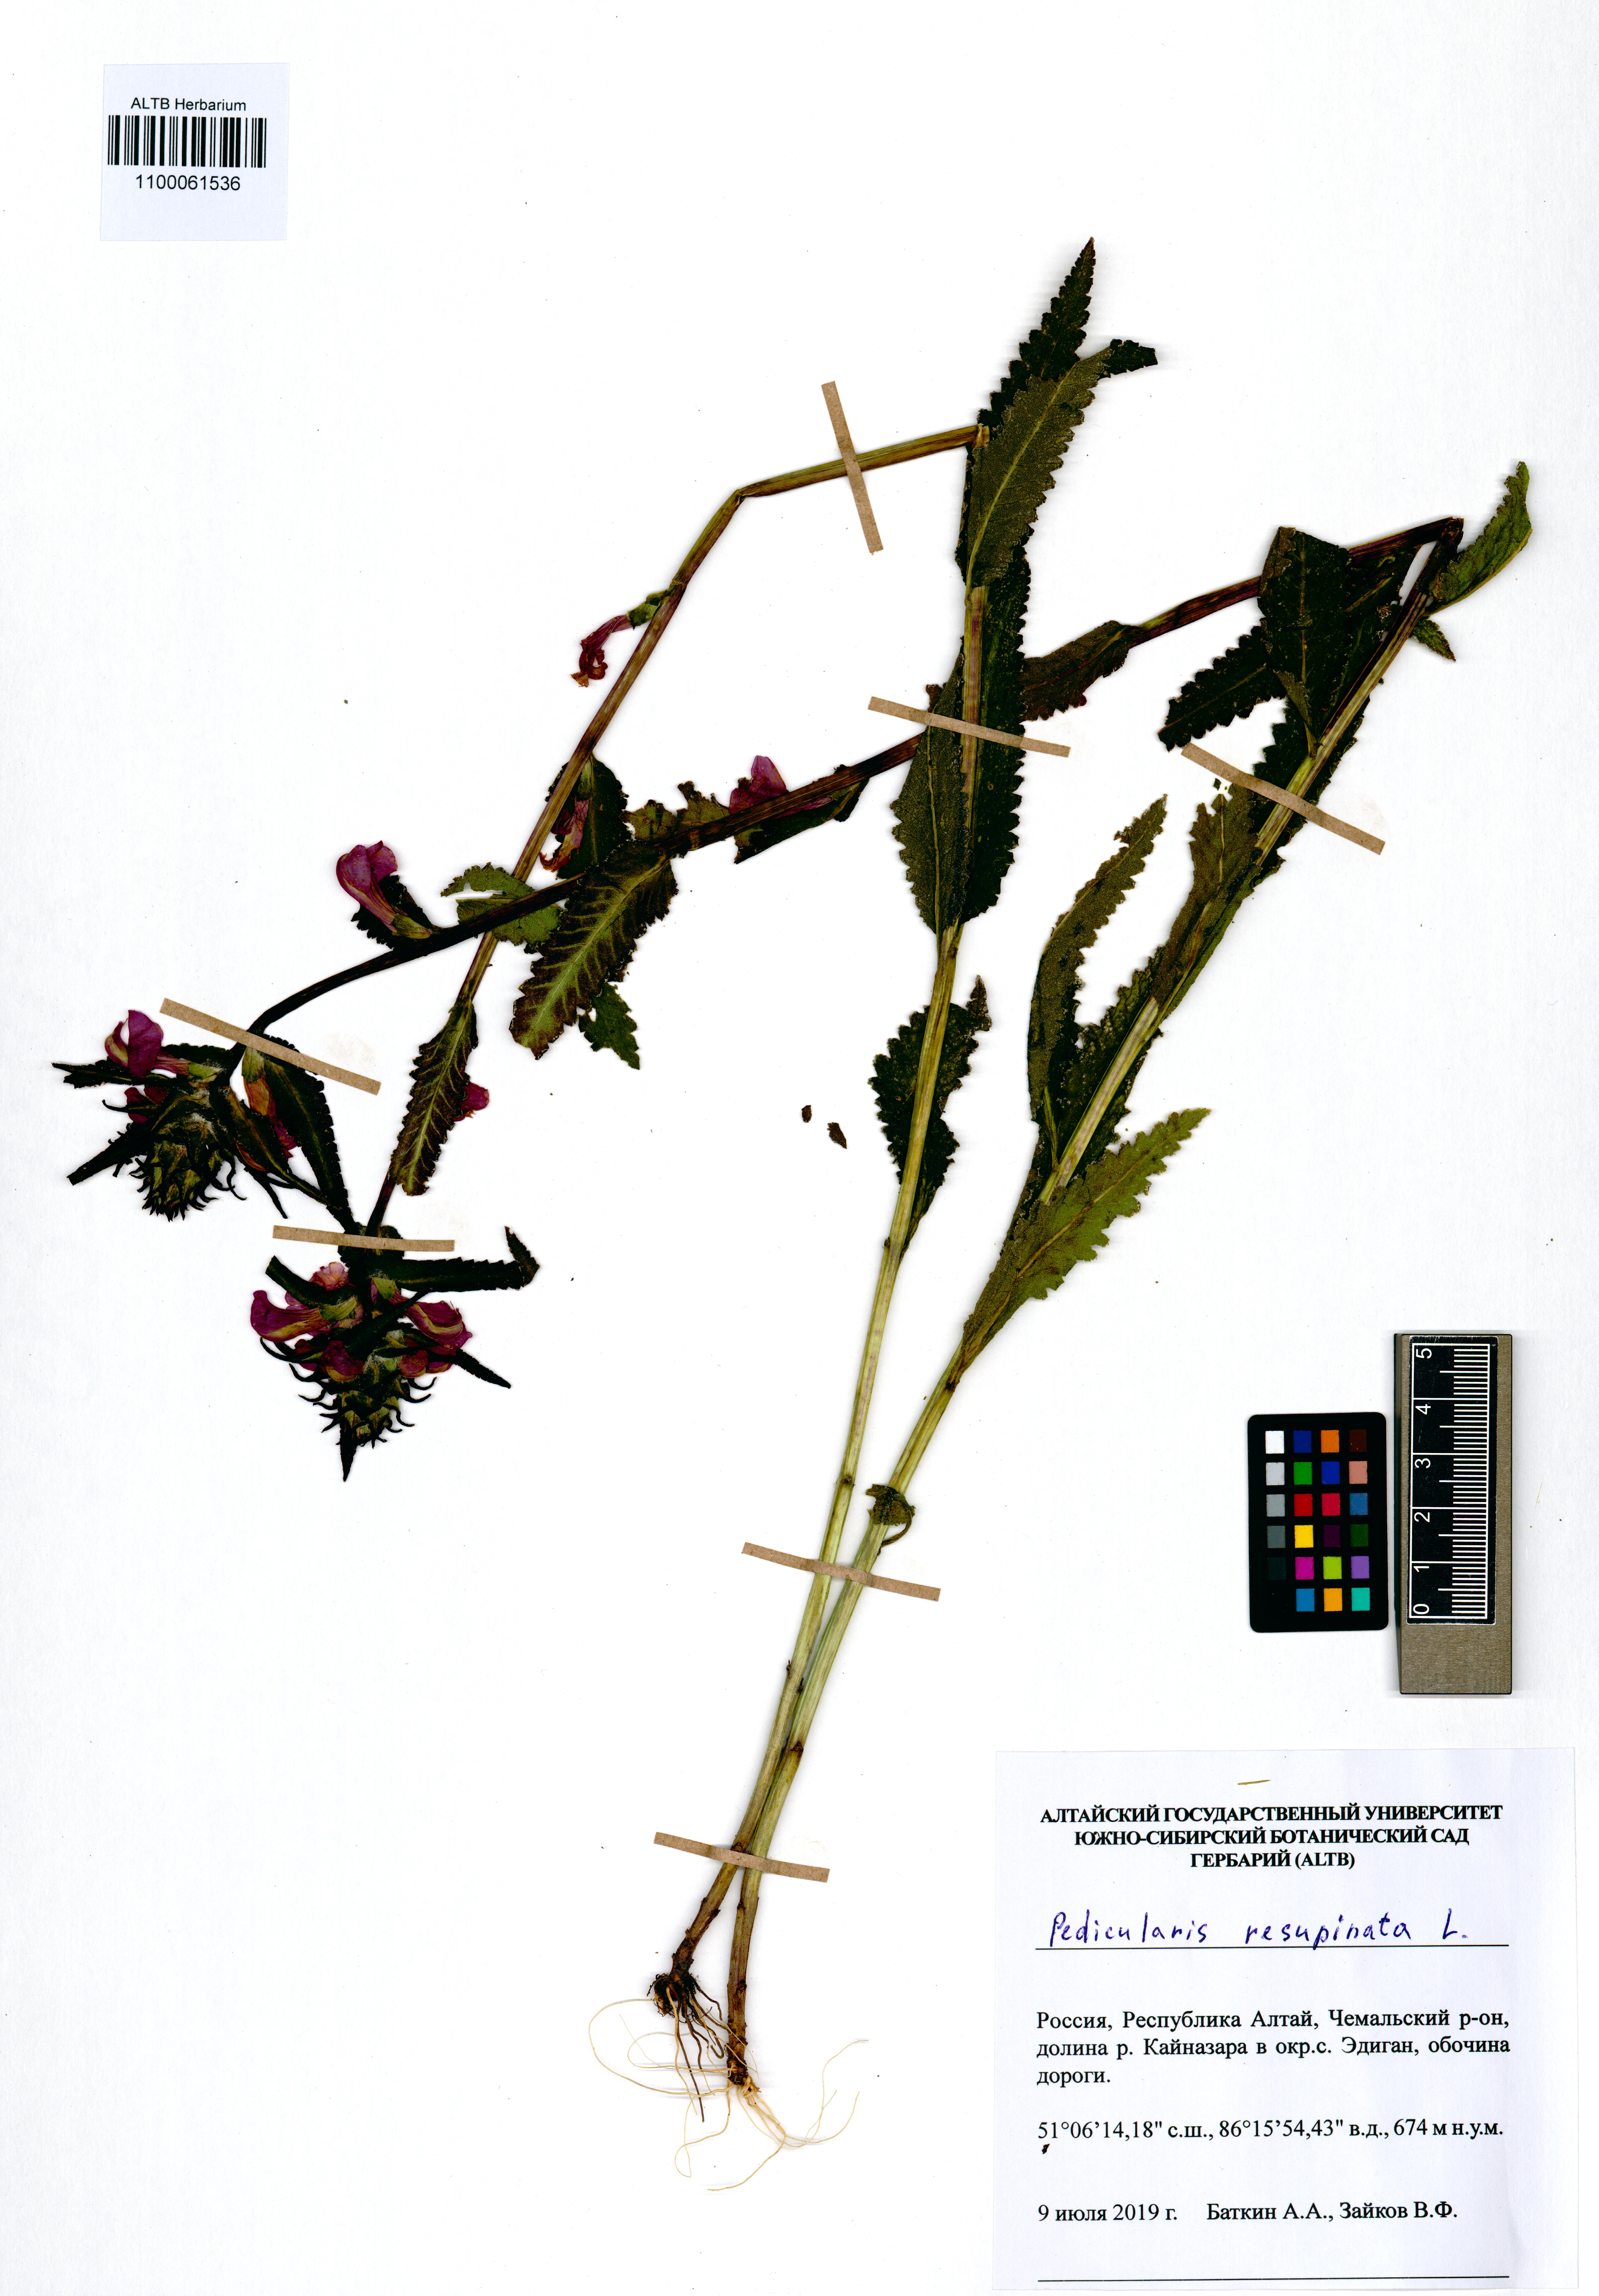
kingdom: Plantae
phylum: Tracheophyta
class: Magnoliopsida
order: Lamiales
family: Orobanchaceae
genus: Pedicularis
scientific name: Pedicularis resupinata
